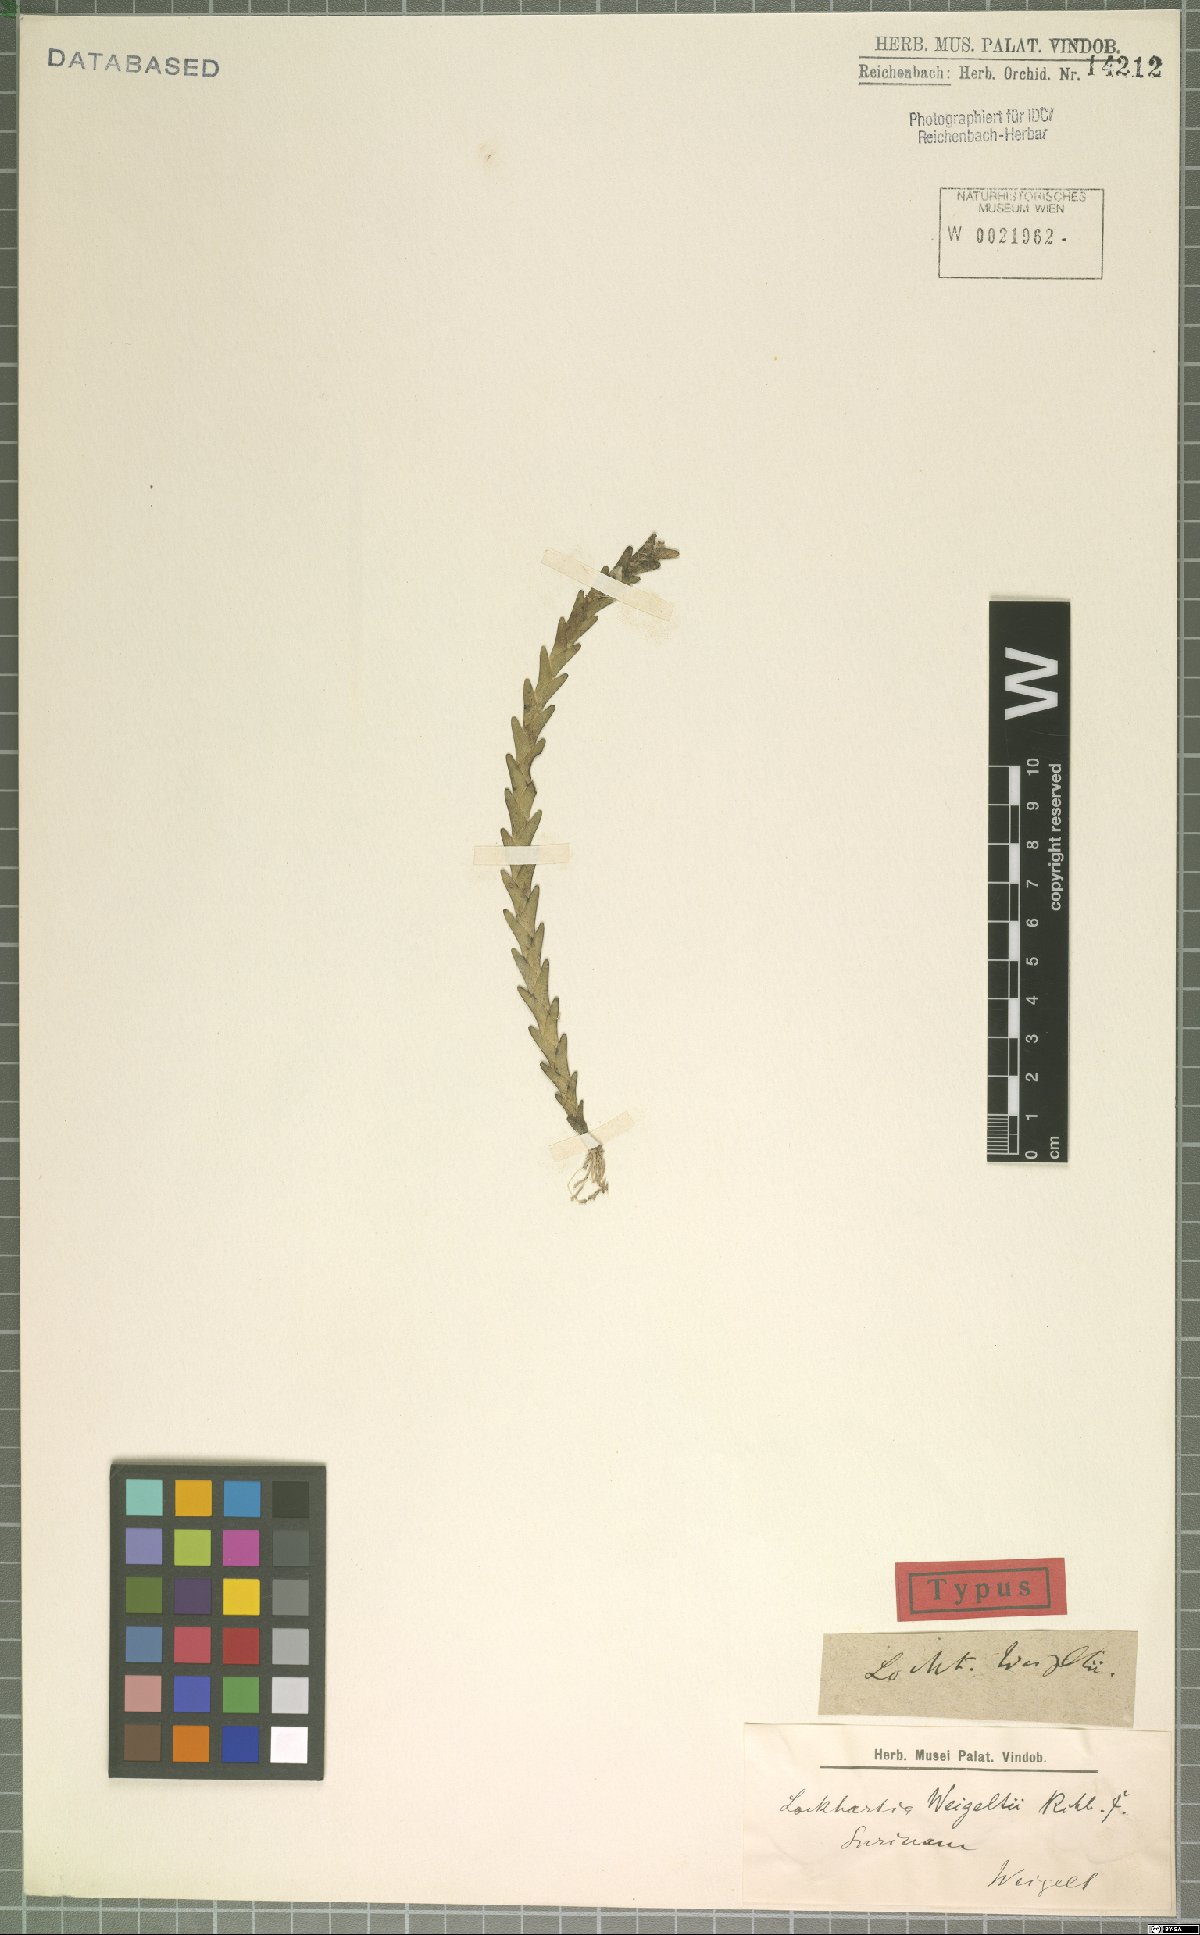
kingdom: Plantae
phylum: Tracheophyta
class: Liliopsida
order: Asparagales
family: Orchidaceae
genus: Lockhartia
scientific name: Lockhartia imbricata
